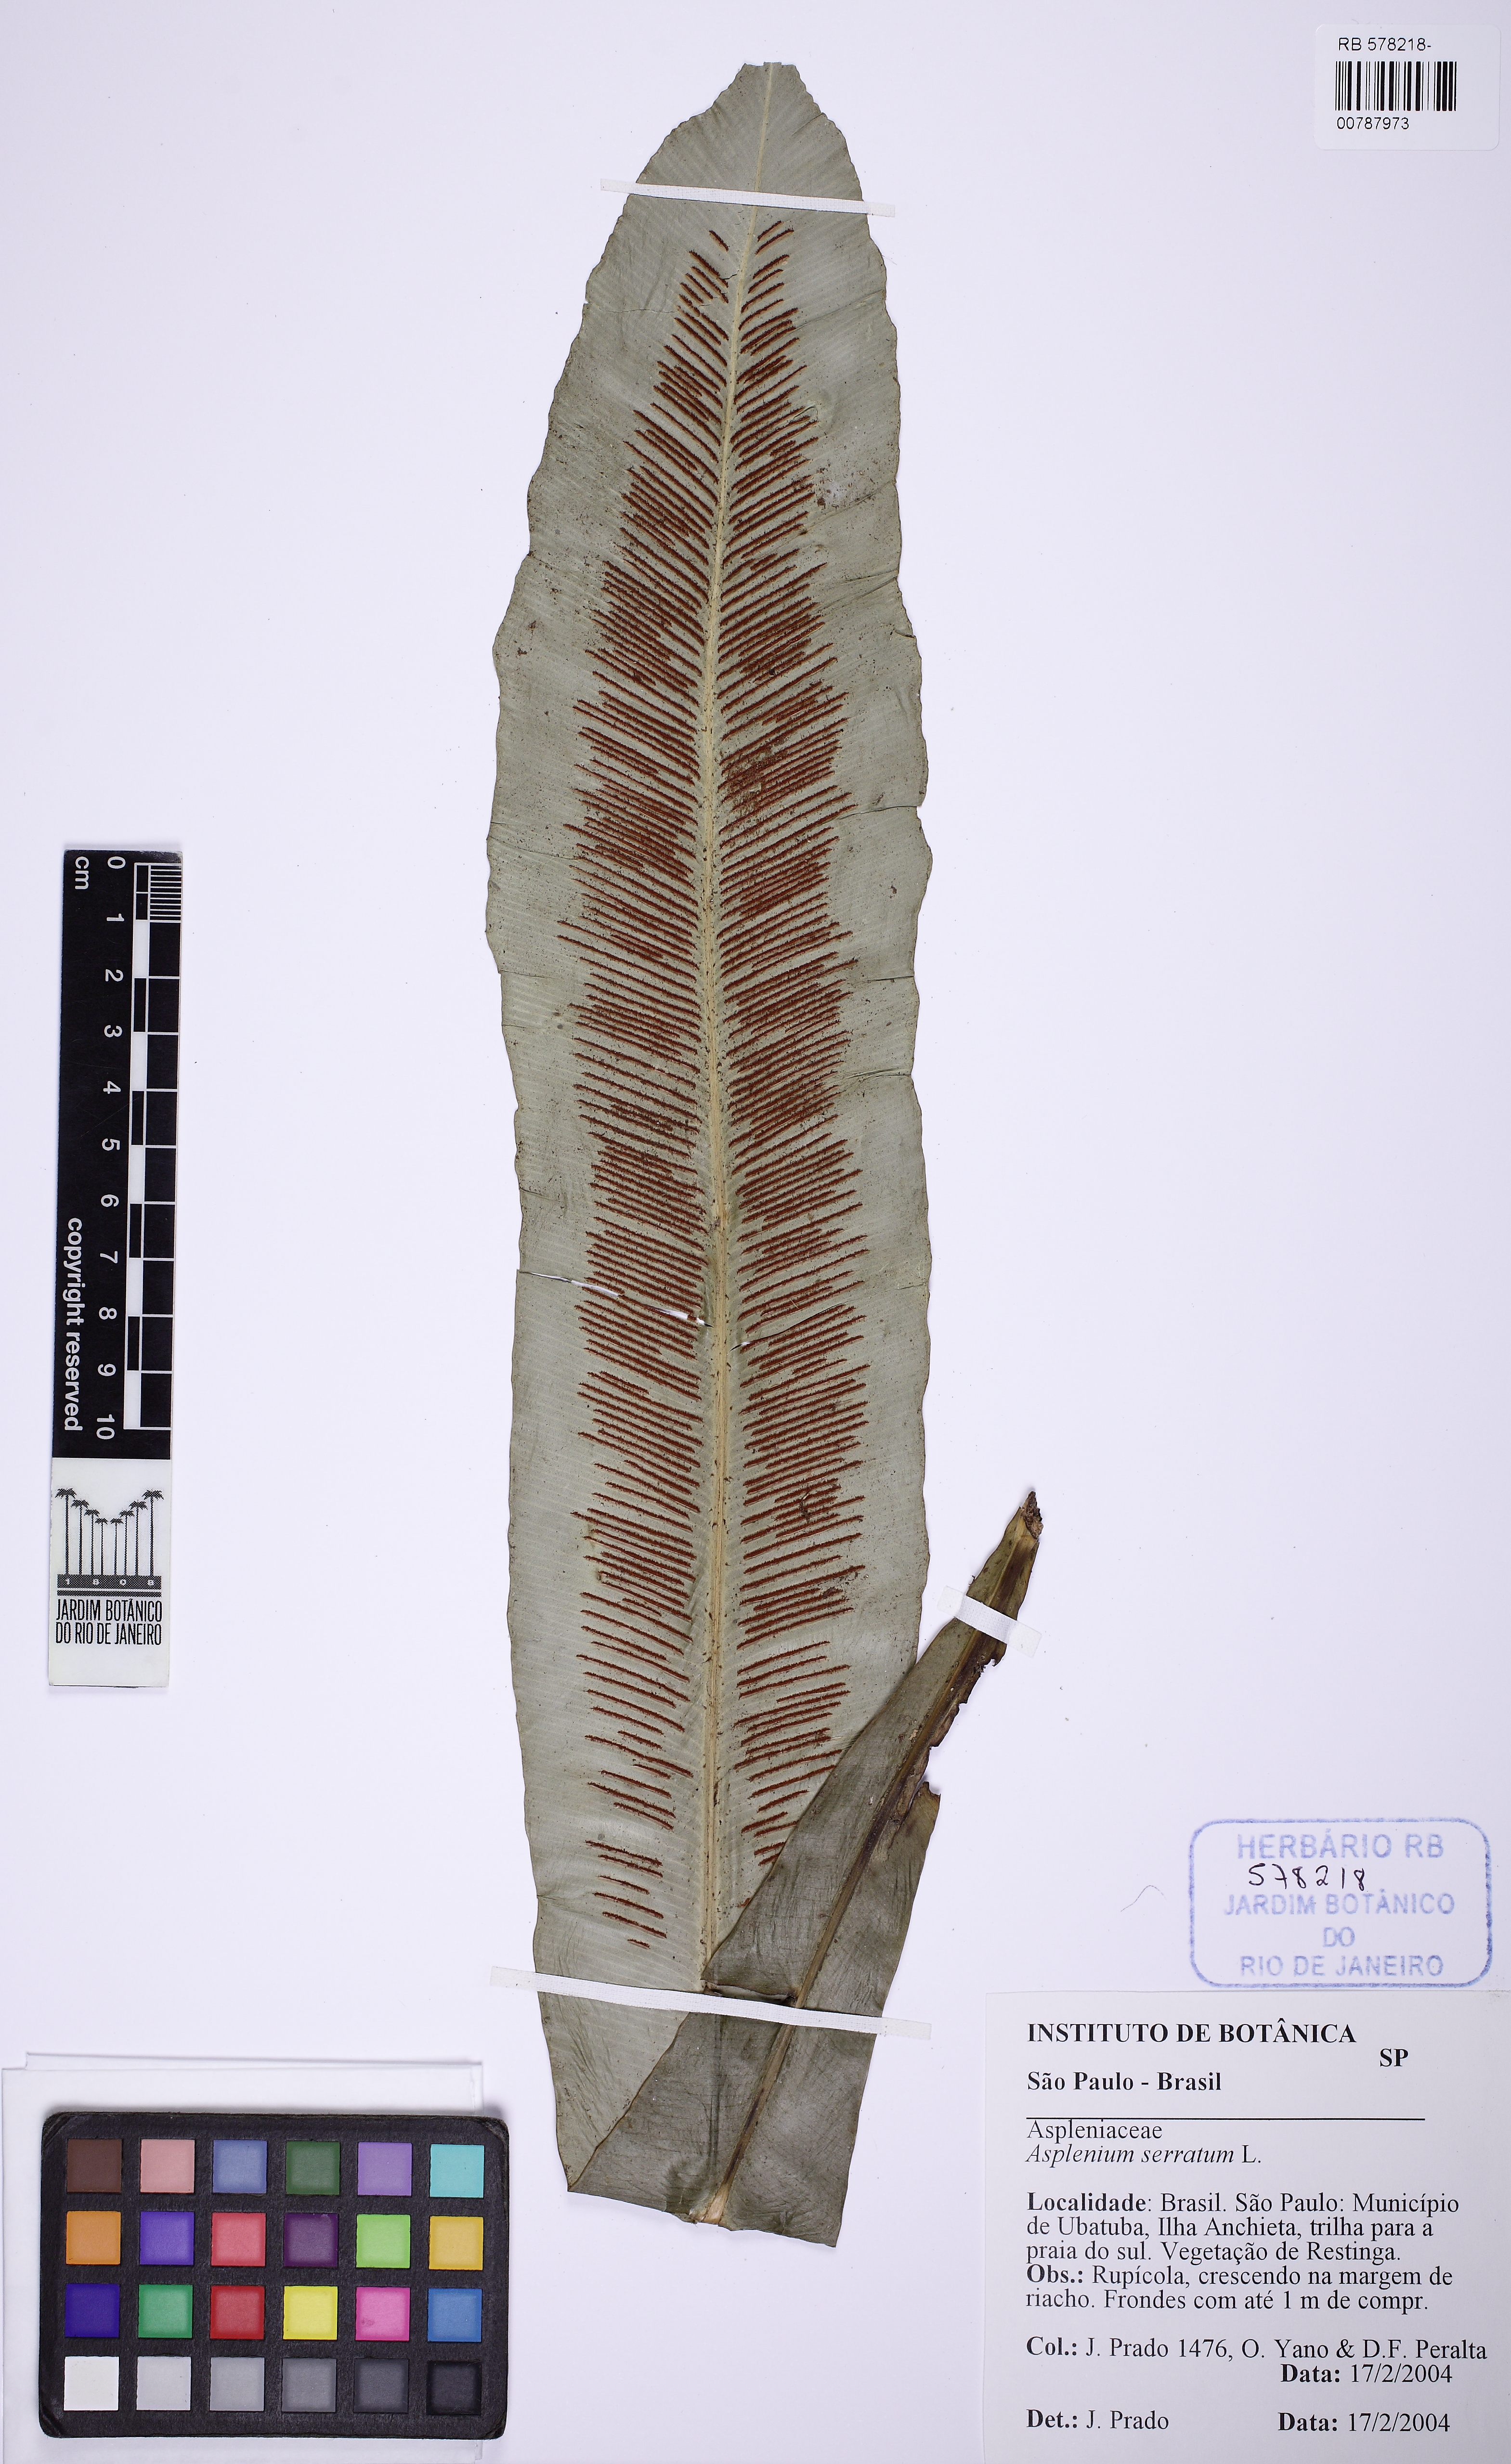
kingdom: Plantae
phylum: Tracheophyta
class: Polypodiopsida
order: Polypodiales
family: Aspleniaceae
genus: Asplenium
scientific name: Asplenium serratum
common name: Wild birdnest fern
